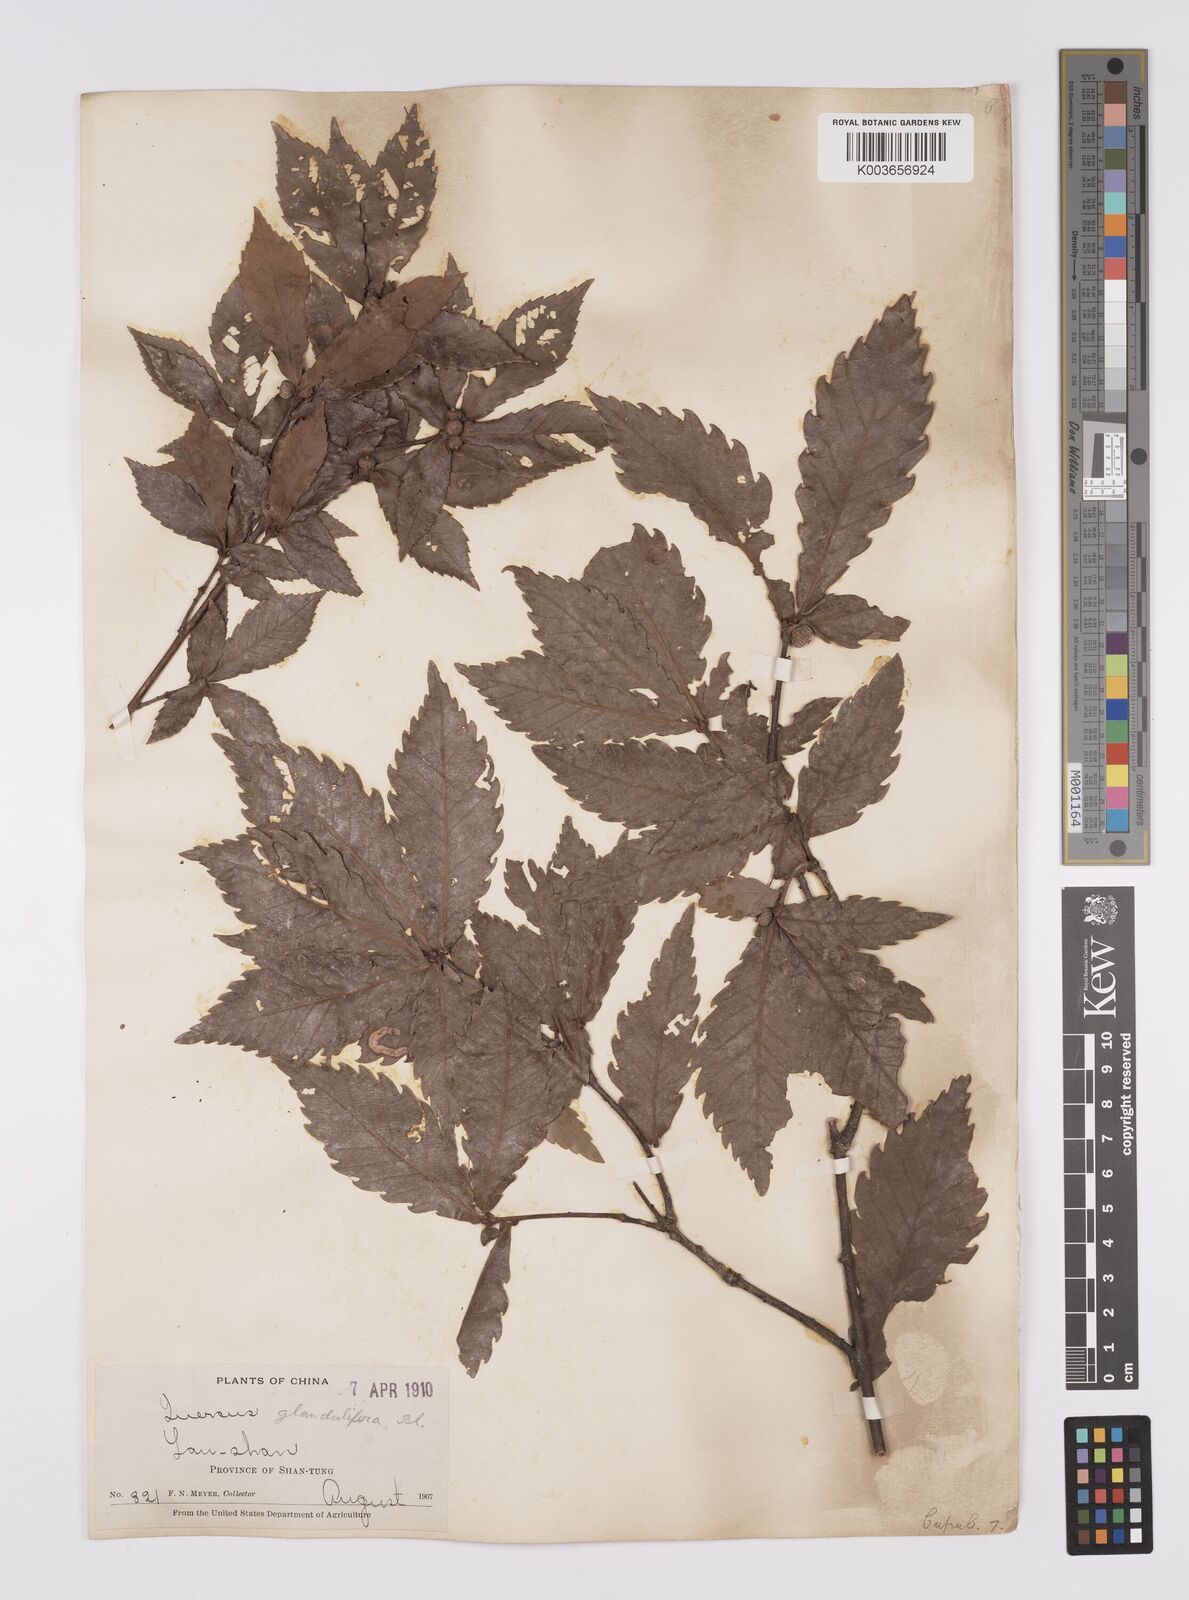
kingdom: Plantae
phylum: Tracheophyta
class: Magnoliopsida
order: Fagales
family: Fagaceae
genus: Quercus
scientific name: Quercus
